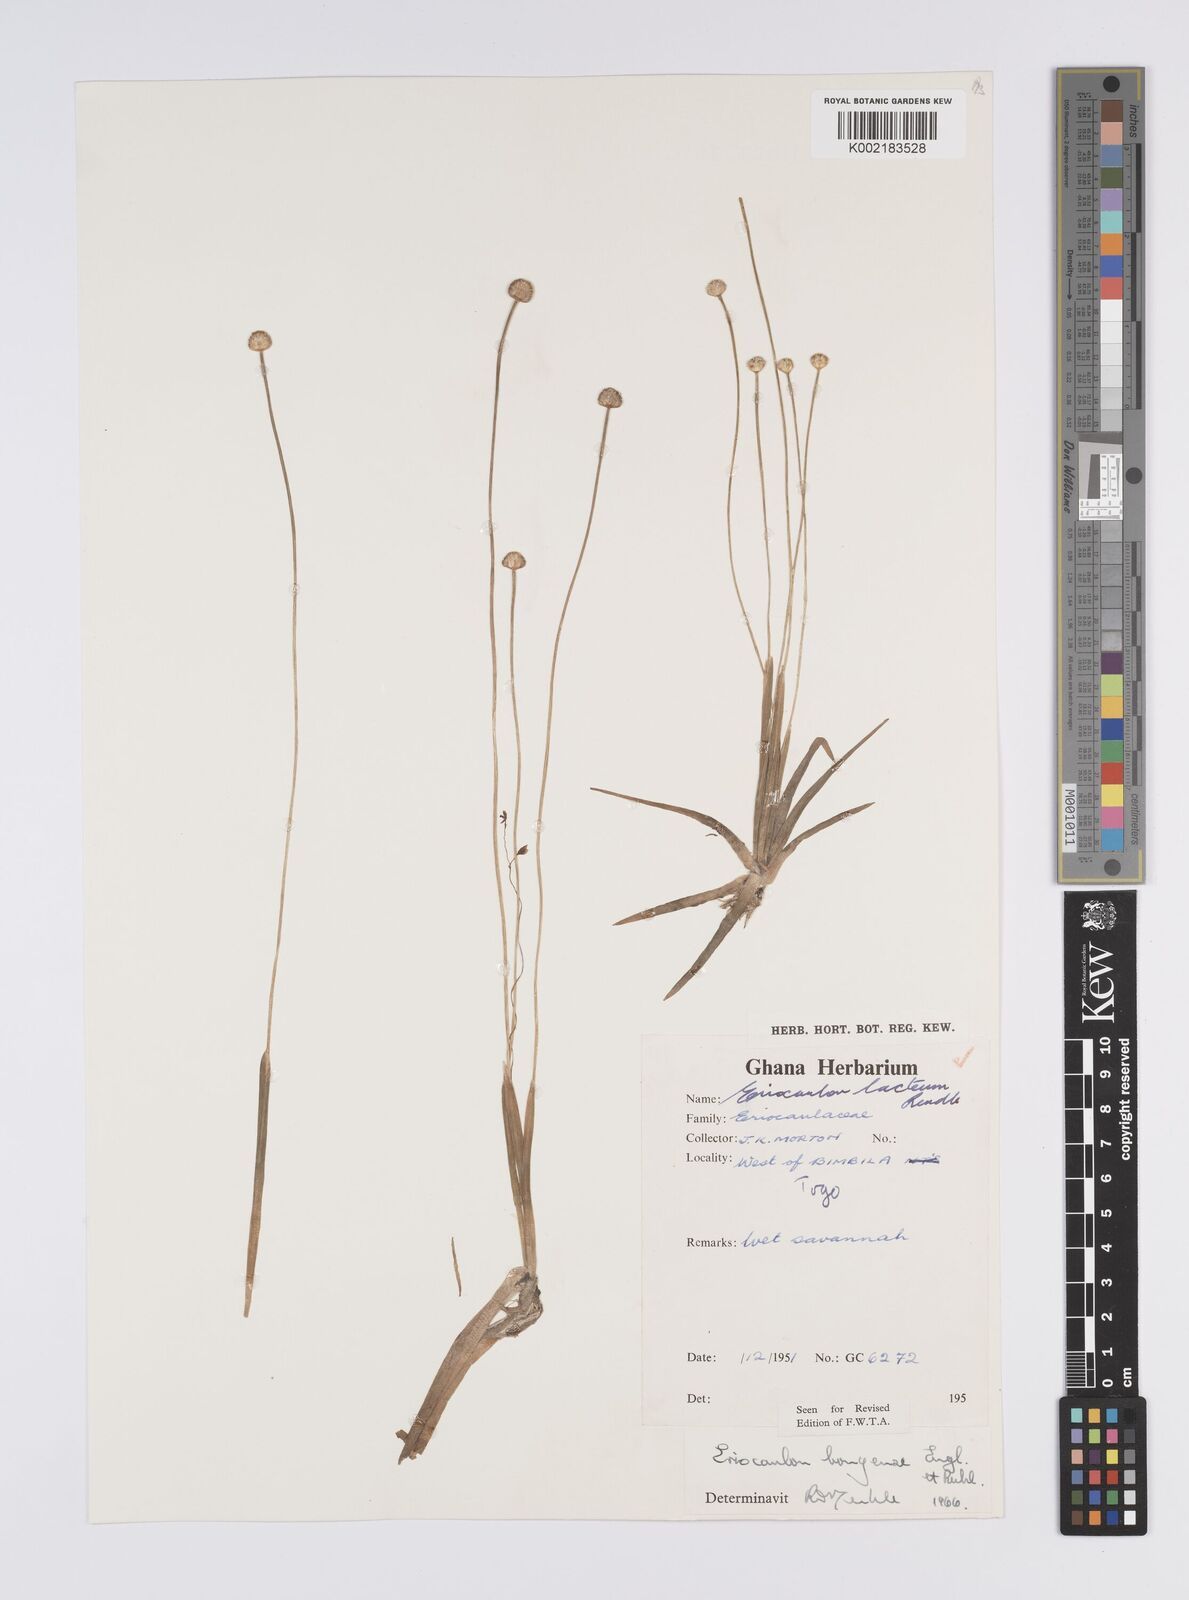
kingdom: Plantae
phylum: Tracheophyta
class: Liliopsida
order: Poales
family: Eriocaulaceae
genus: Eriocaulon
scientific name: Eriocaulon bongense
